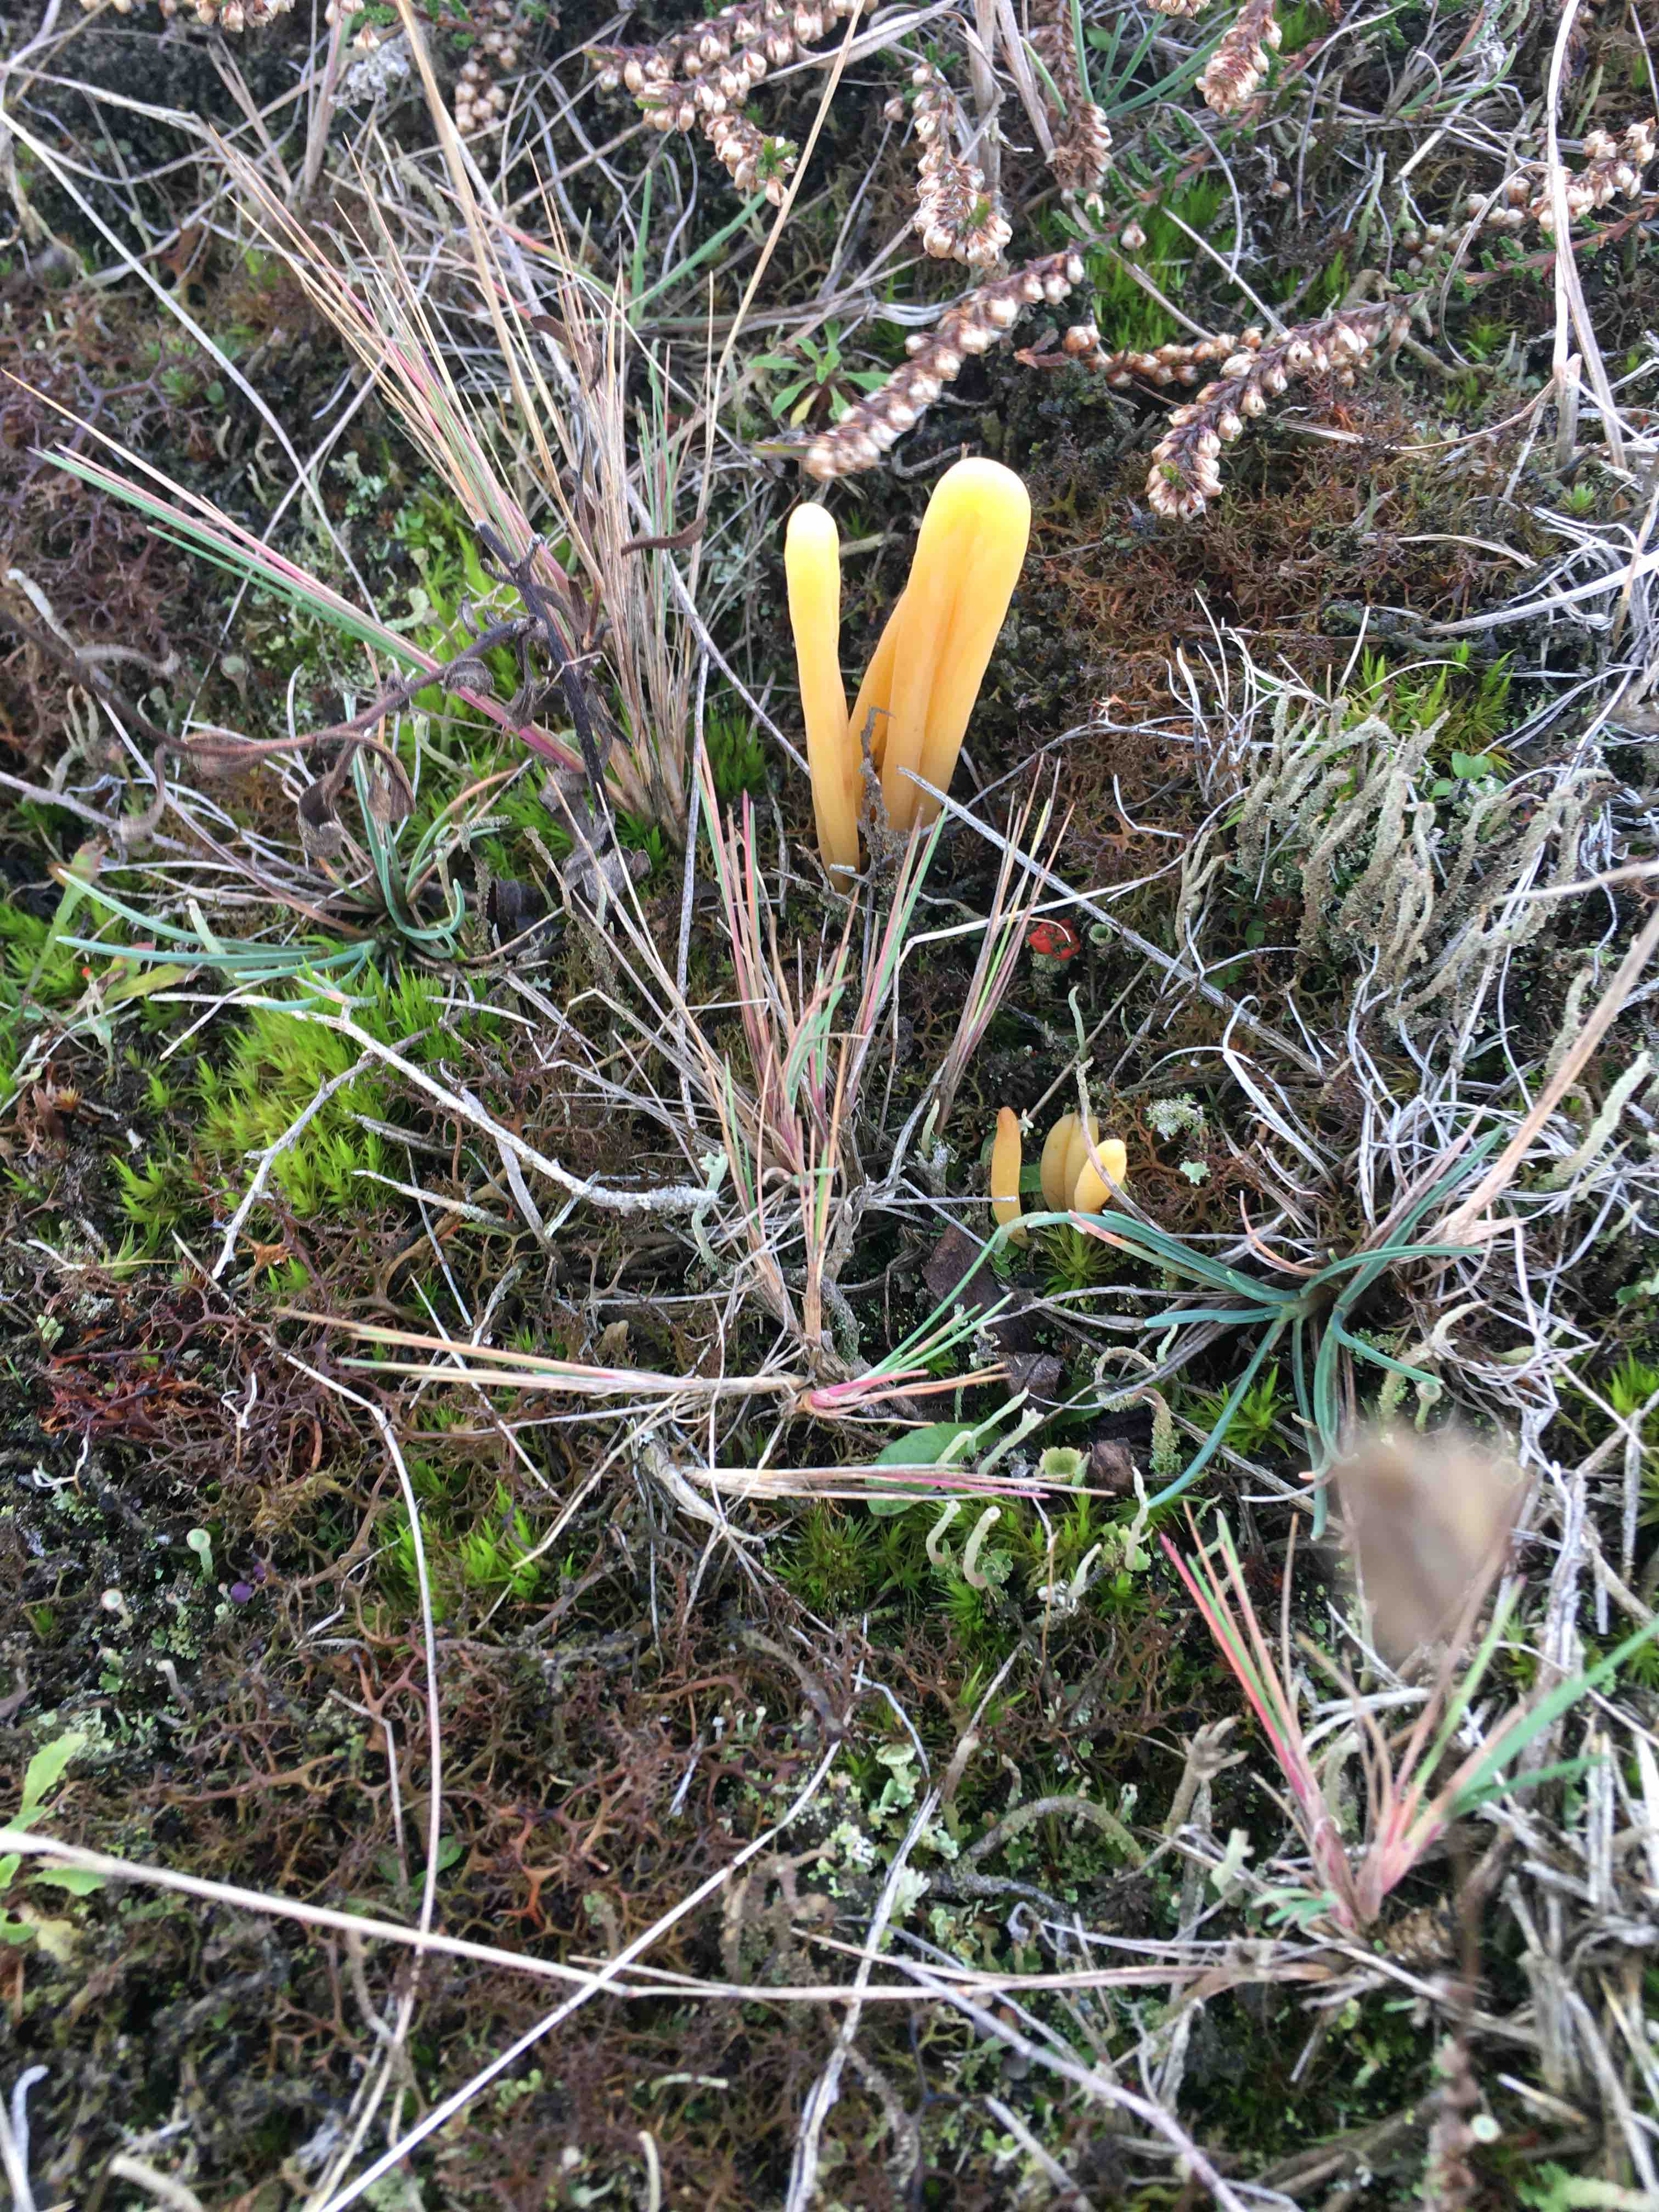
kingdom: Fungi
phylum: Basidiomycota
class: Agaricomycetes
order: Agaricales
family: Clavariaceae
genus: Clavaria
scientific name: Clavaria argillacea
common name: lerfarvet køllesvamp
